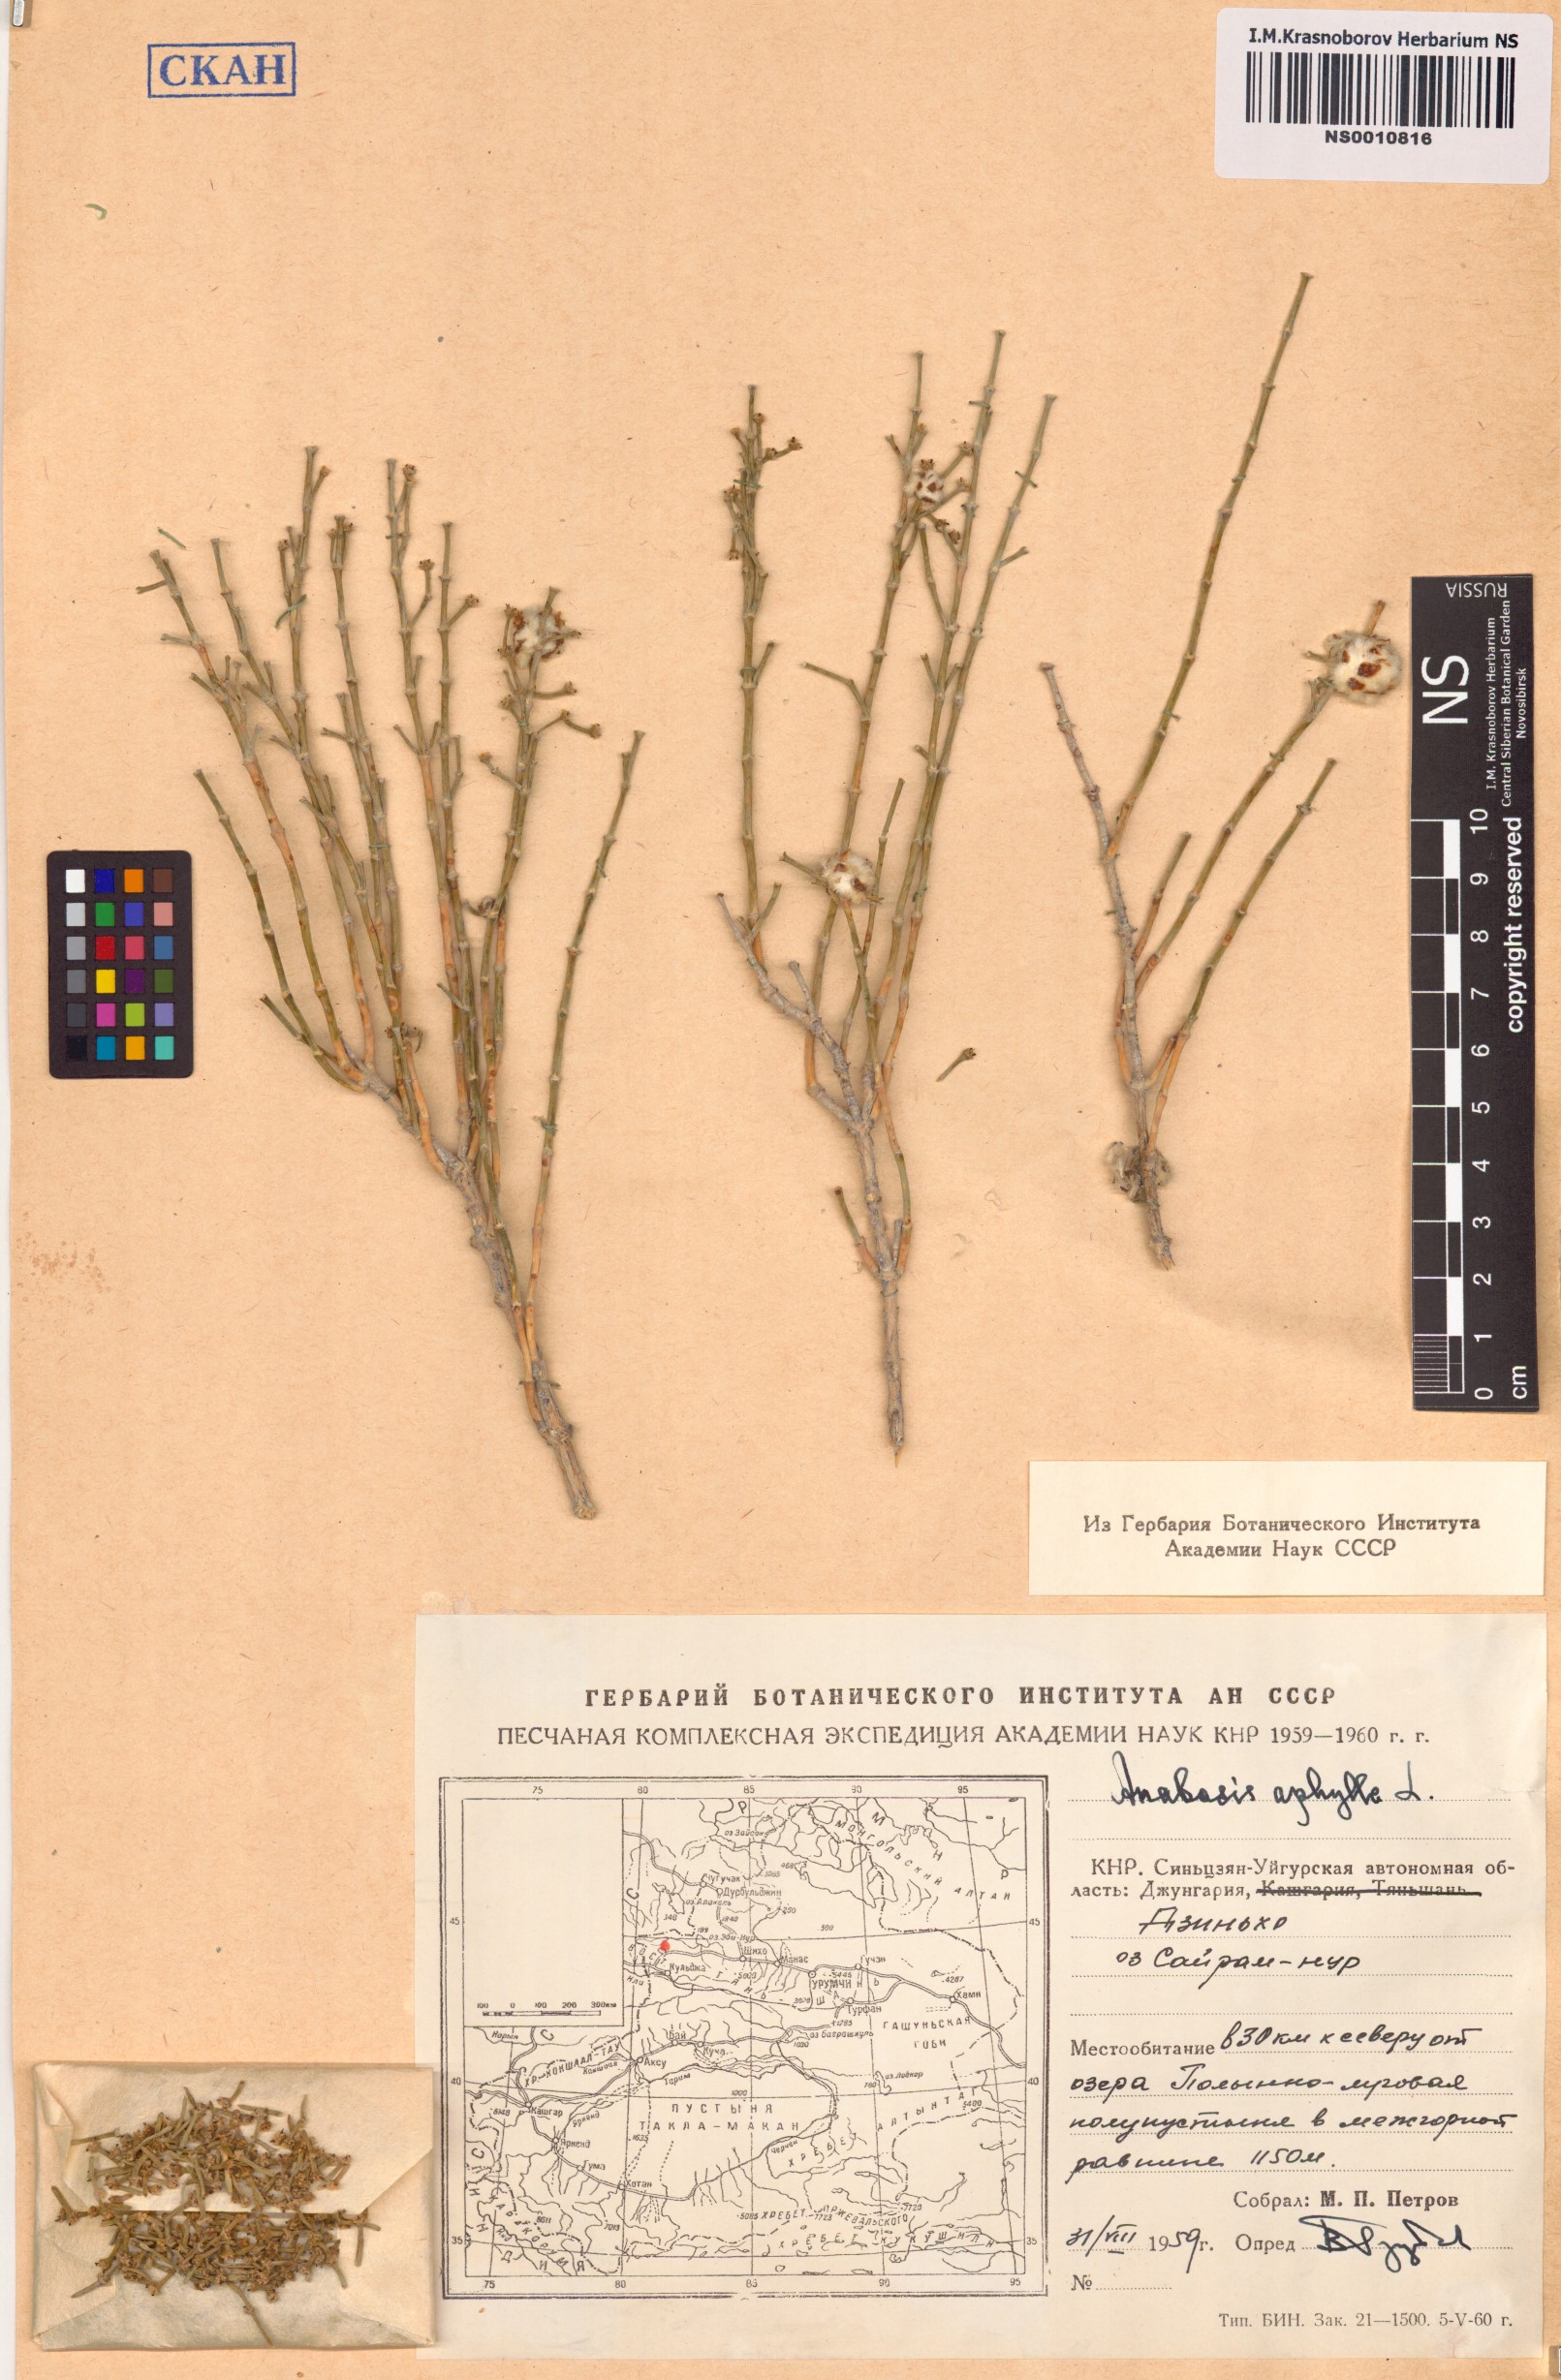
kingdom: Plantae
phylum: Tracheophyta
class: Magnoliopsida
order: Caryophyllales
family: Amaranthaceae
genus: Anabasis
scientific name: Anabasis aphylla
